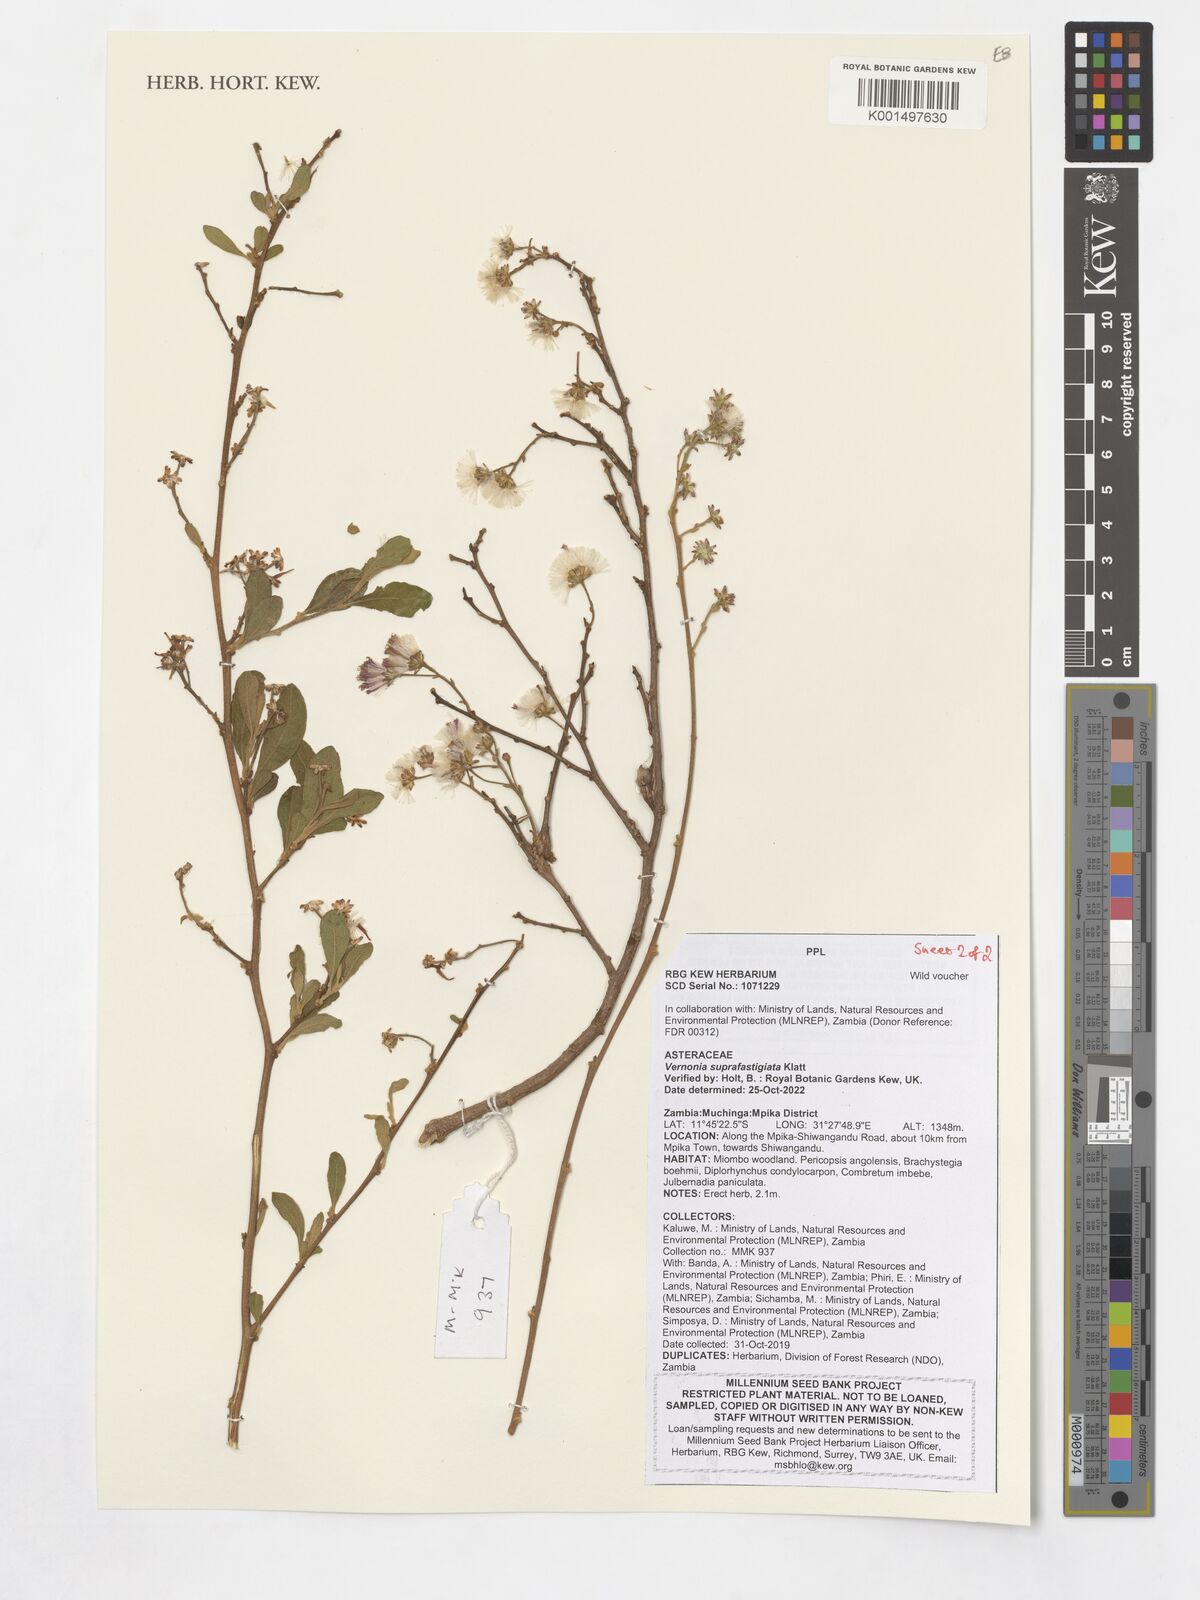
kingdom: Plantae
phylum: Tracheophyta
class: Magnoliopsida
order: Asterales
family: Asteraceae
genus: Vernonia
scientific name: Vernonia suprafastigiata
